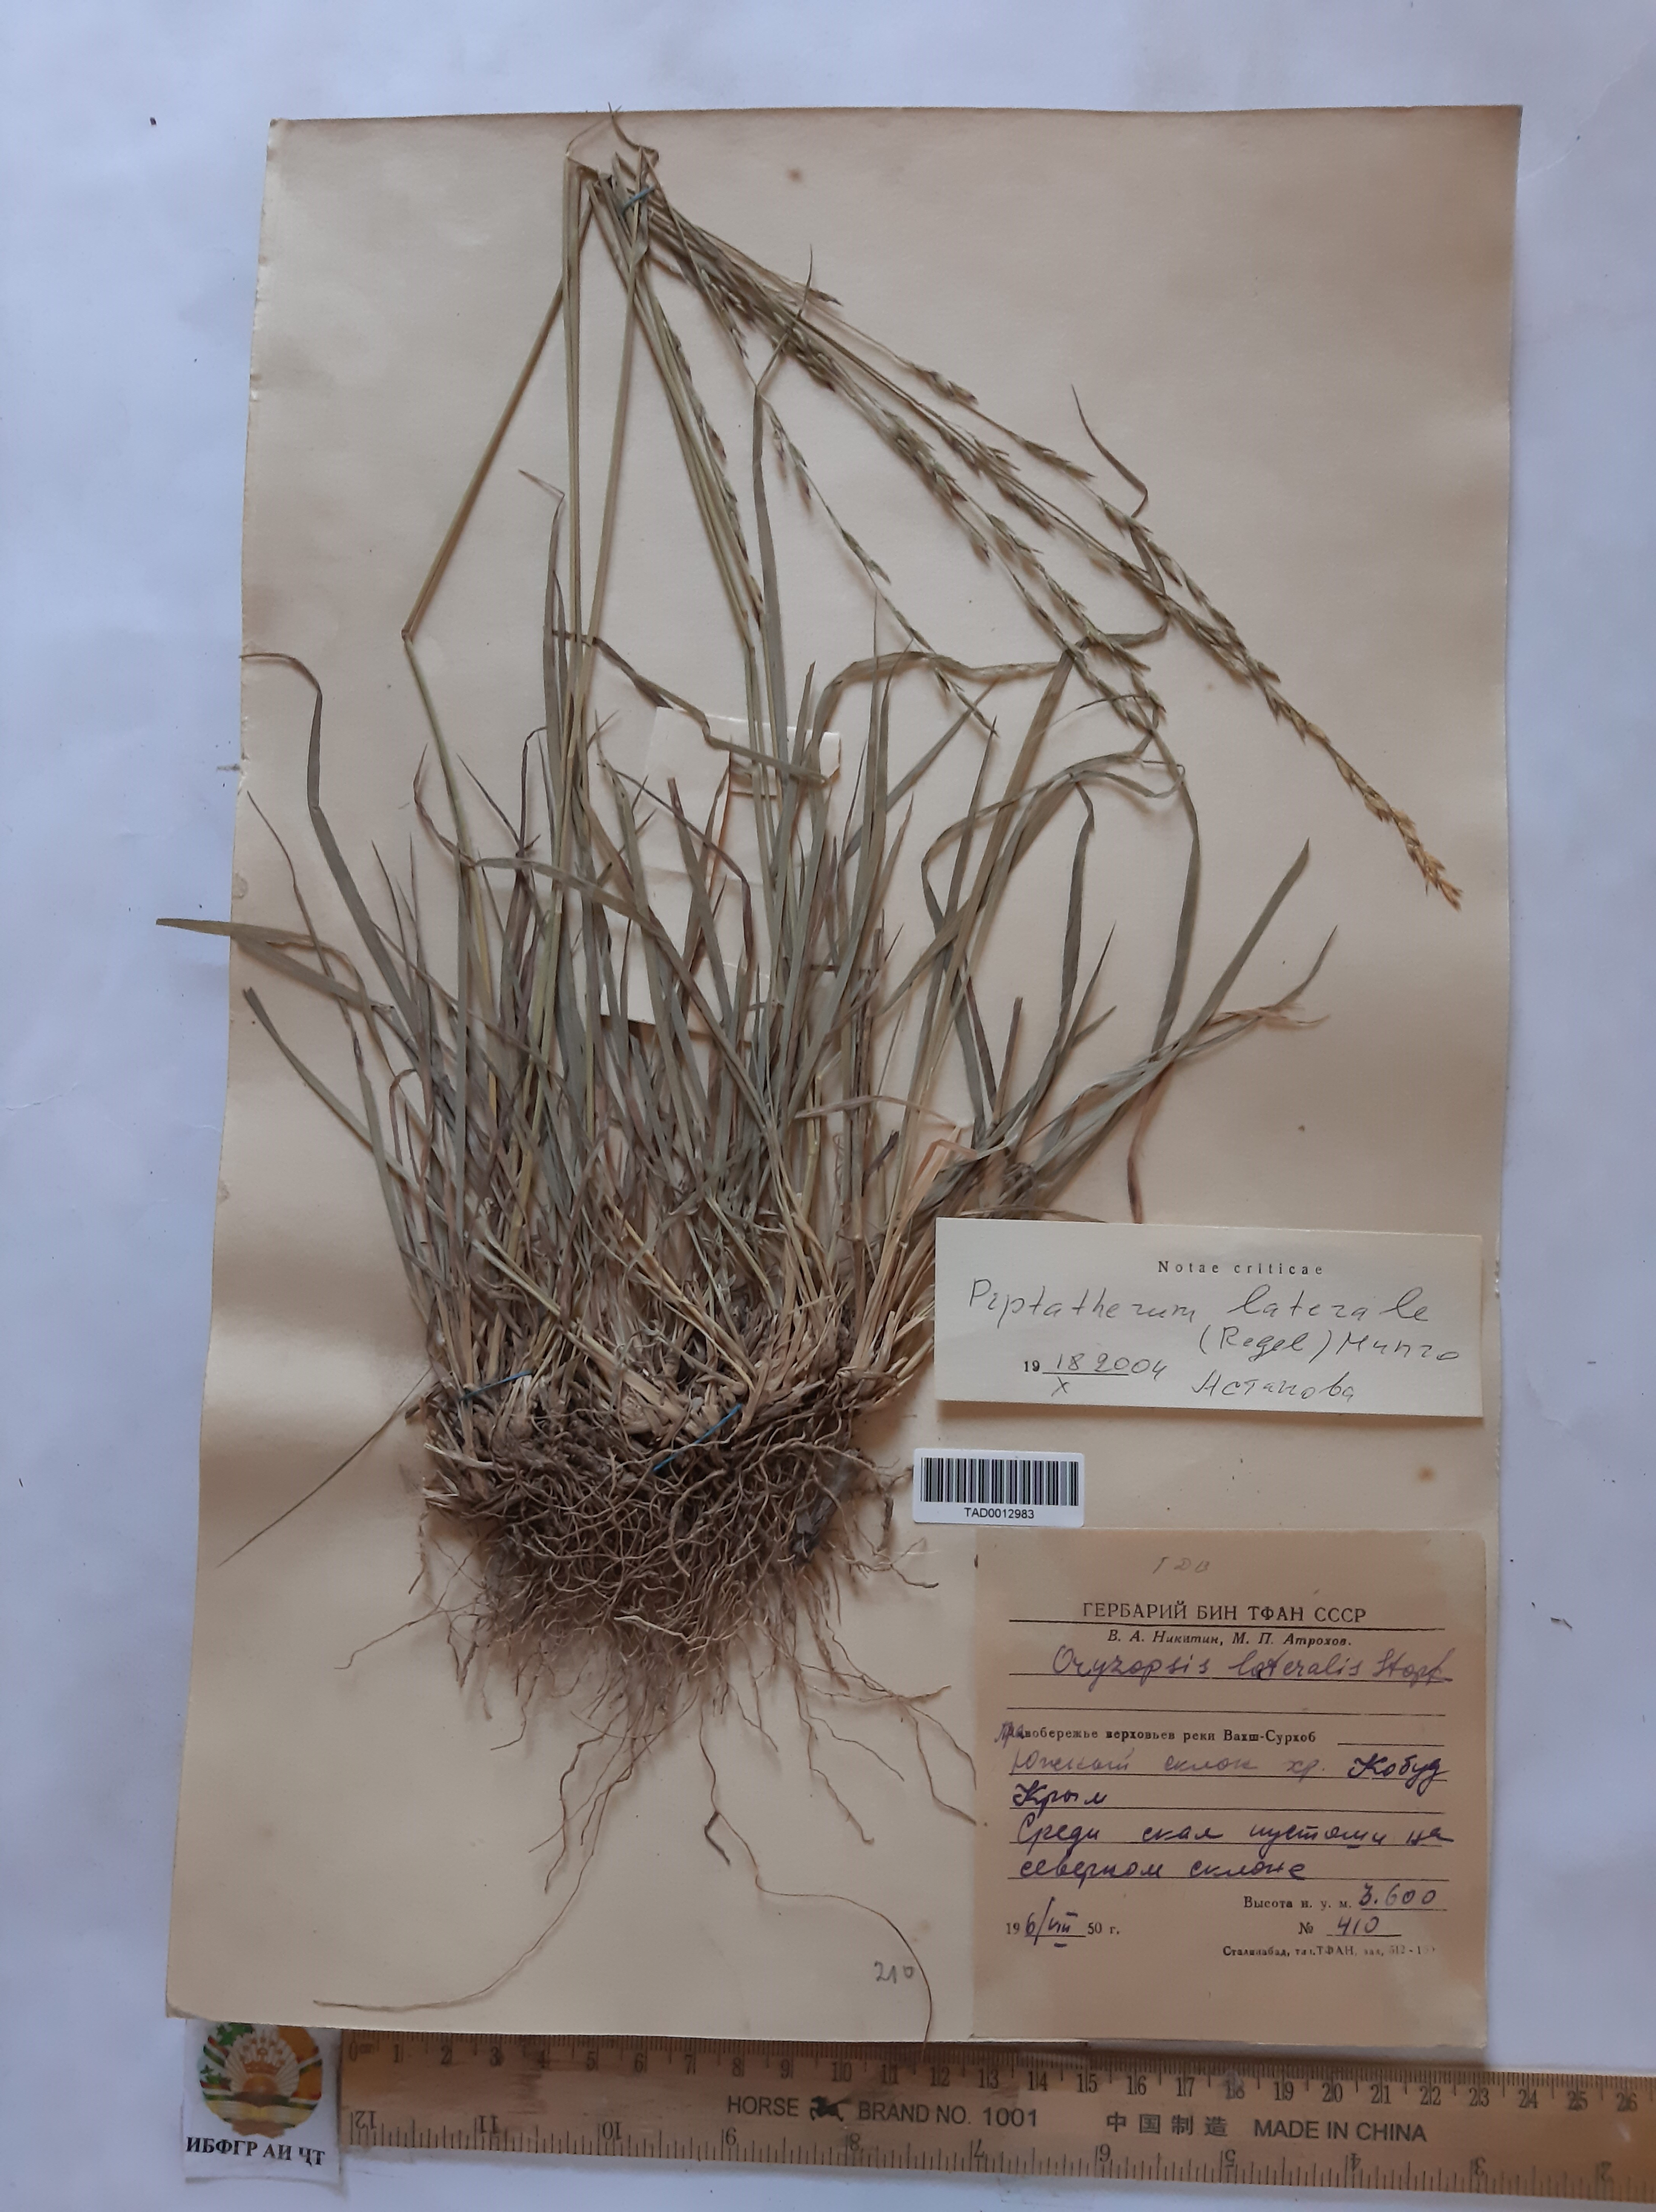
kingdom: Plantae
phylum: Tracheophyta
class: Liliopsida
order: Poales
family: Poaceae
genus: Piptatherum
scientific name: Piptatherum laterale
